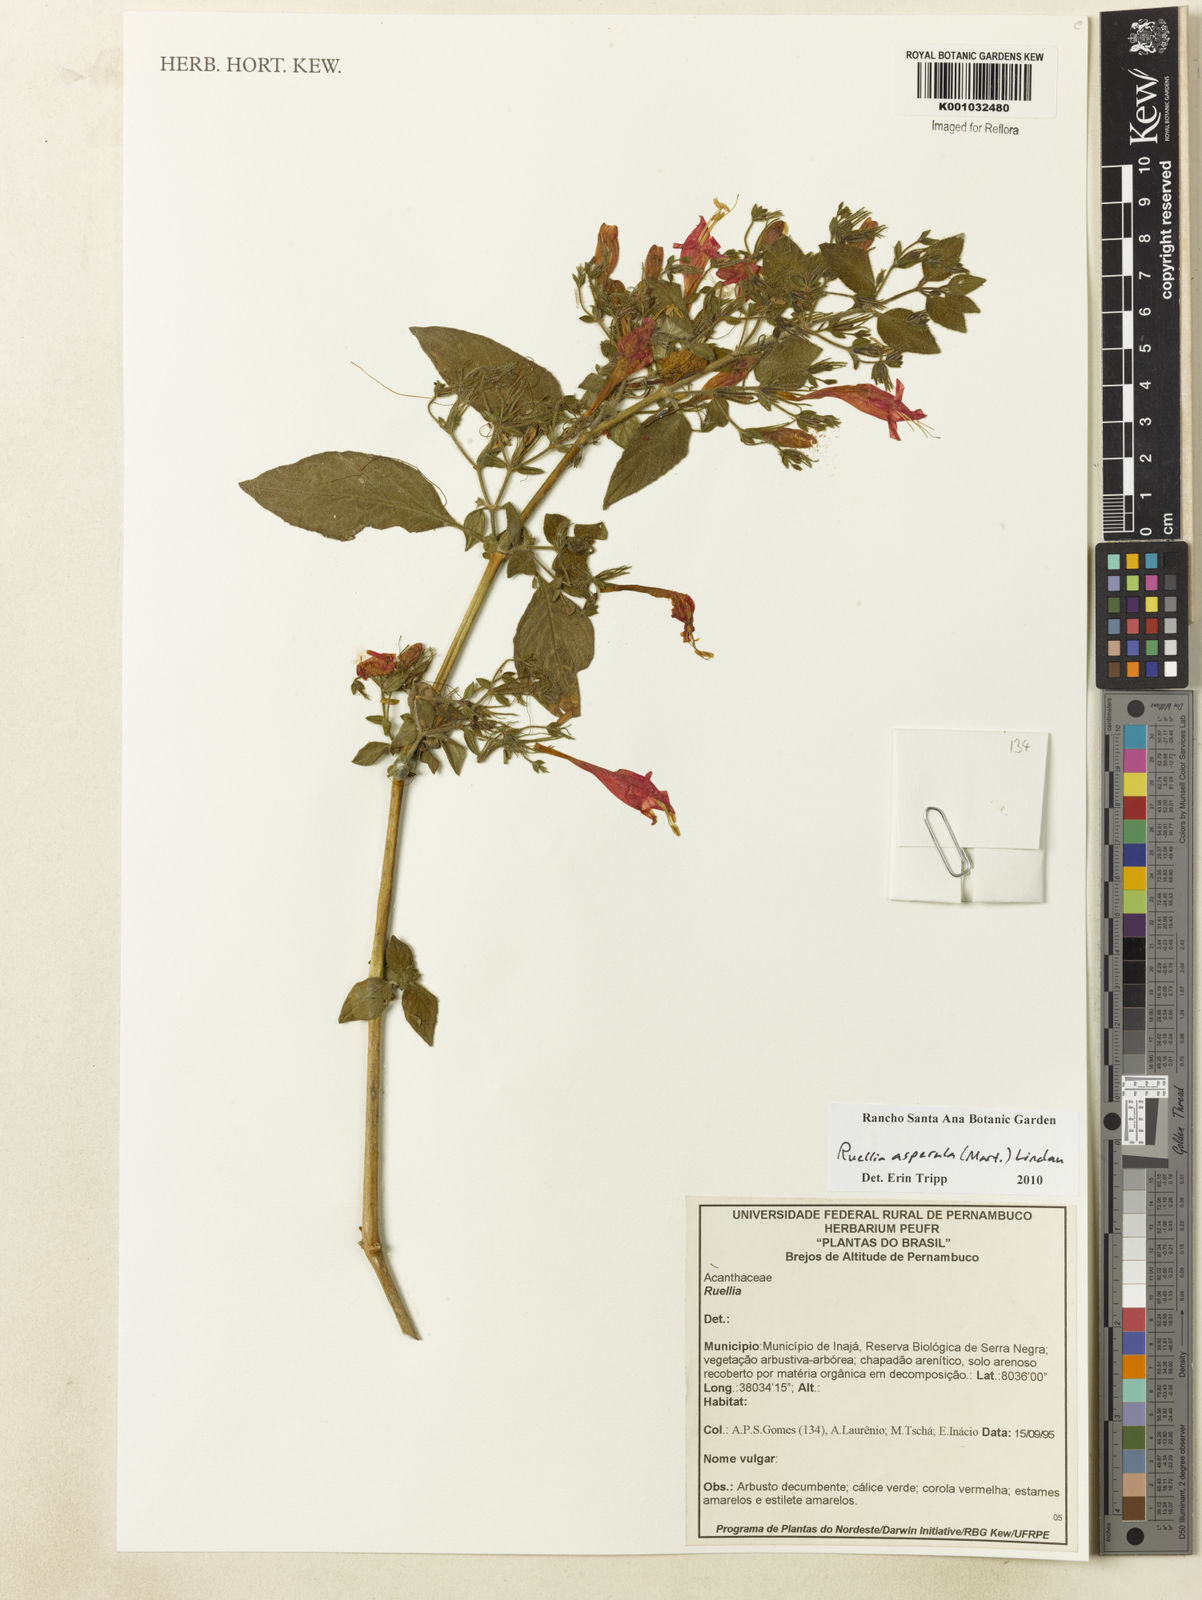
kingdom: Plantae
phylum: Tracheophyta
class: Magnoliopsida
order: Lamiales
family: Acanthaceae
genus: Ruellia
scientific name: Ruellia asperula
